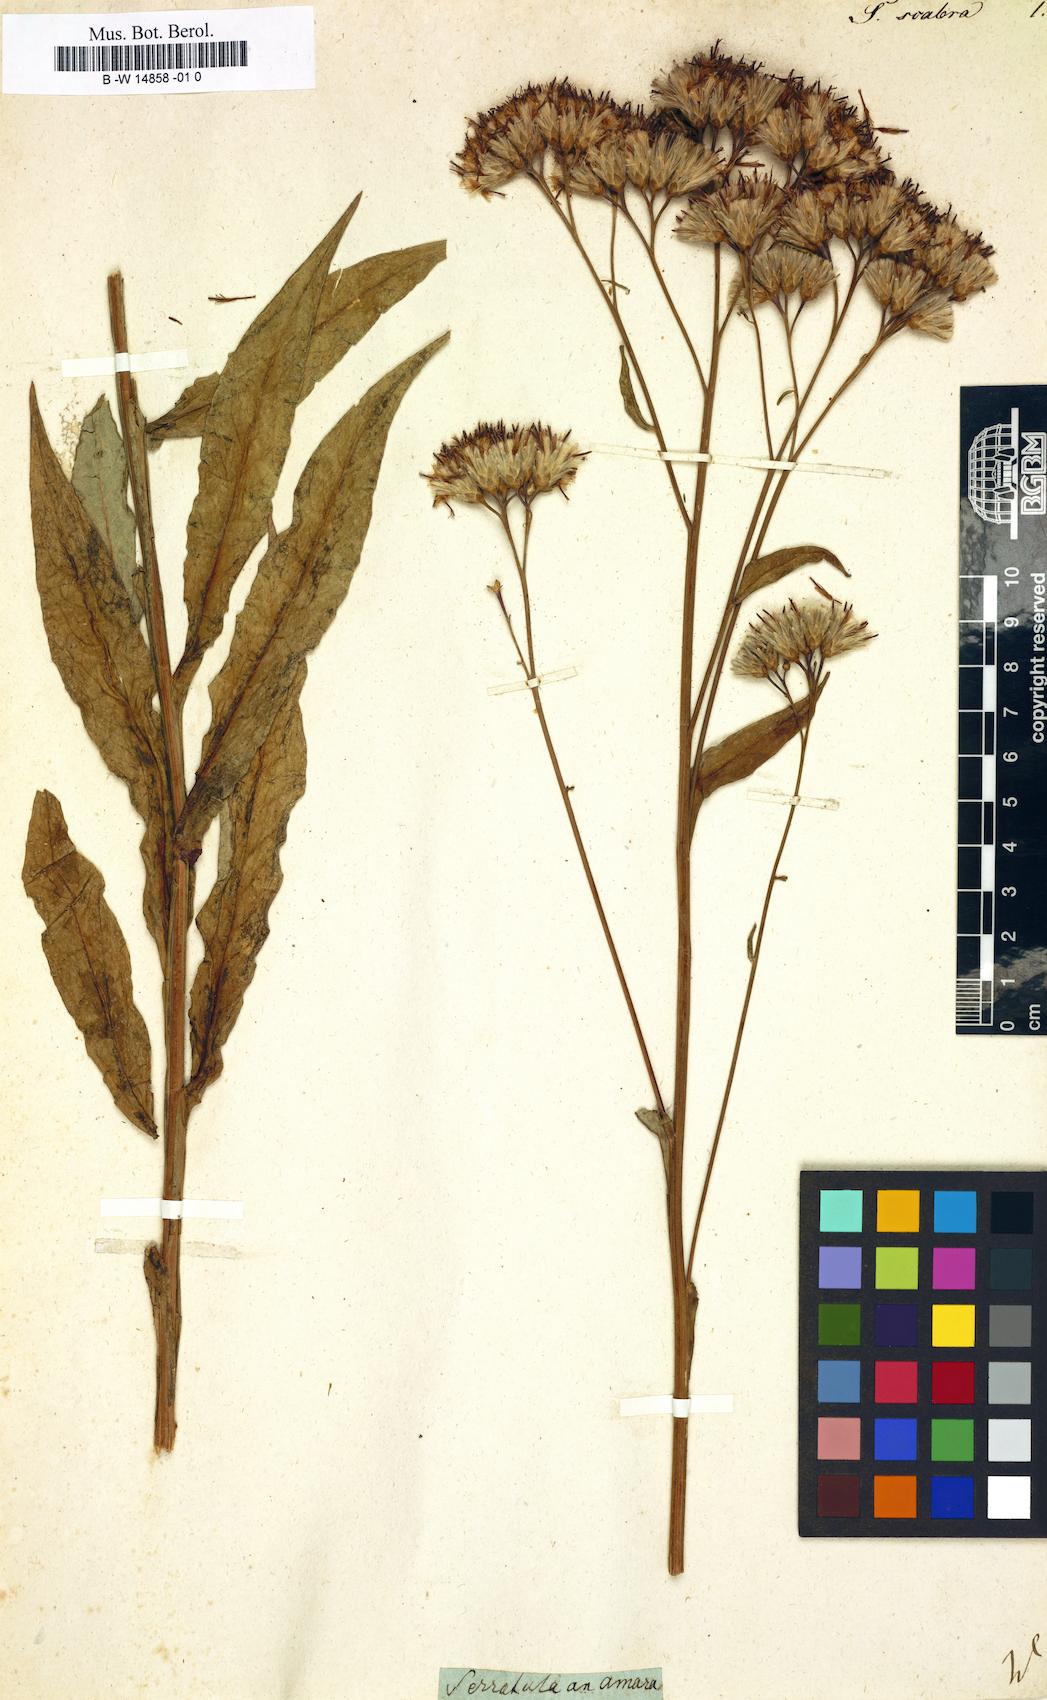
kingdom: Plantae
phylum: Tracheophyta
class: Magnoliopsida
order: Asterales
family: Asteraceae
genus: Serratula
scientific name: Serratula scabra
